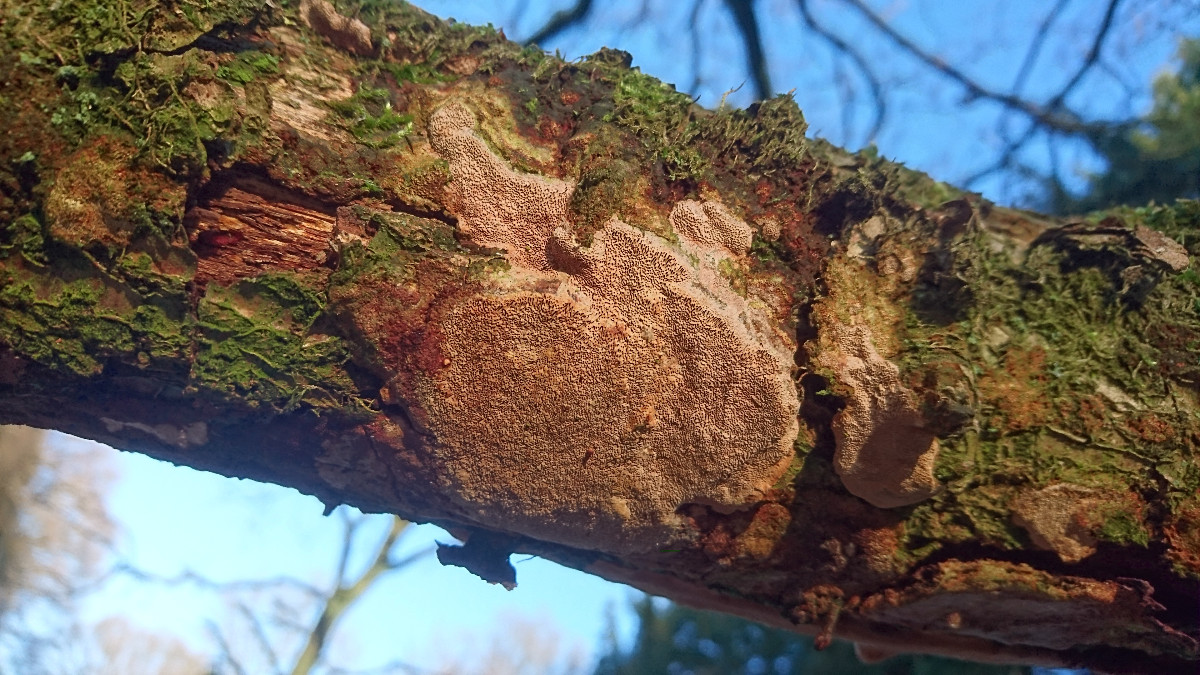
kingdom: Fungi
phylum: Basidiomycota
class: Agaricomycetes
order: Hymenochaetales
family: Hymenochaetaceae
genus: Fuscoporia
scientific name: Fuscoporia ferrea
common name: skorpe-ildporesvamp
